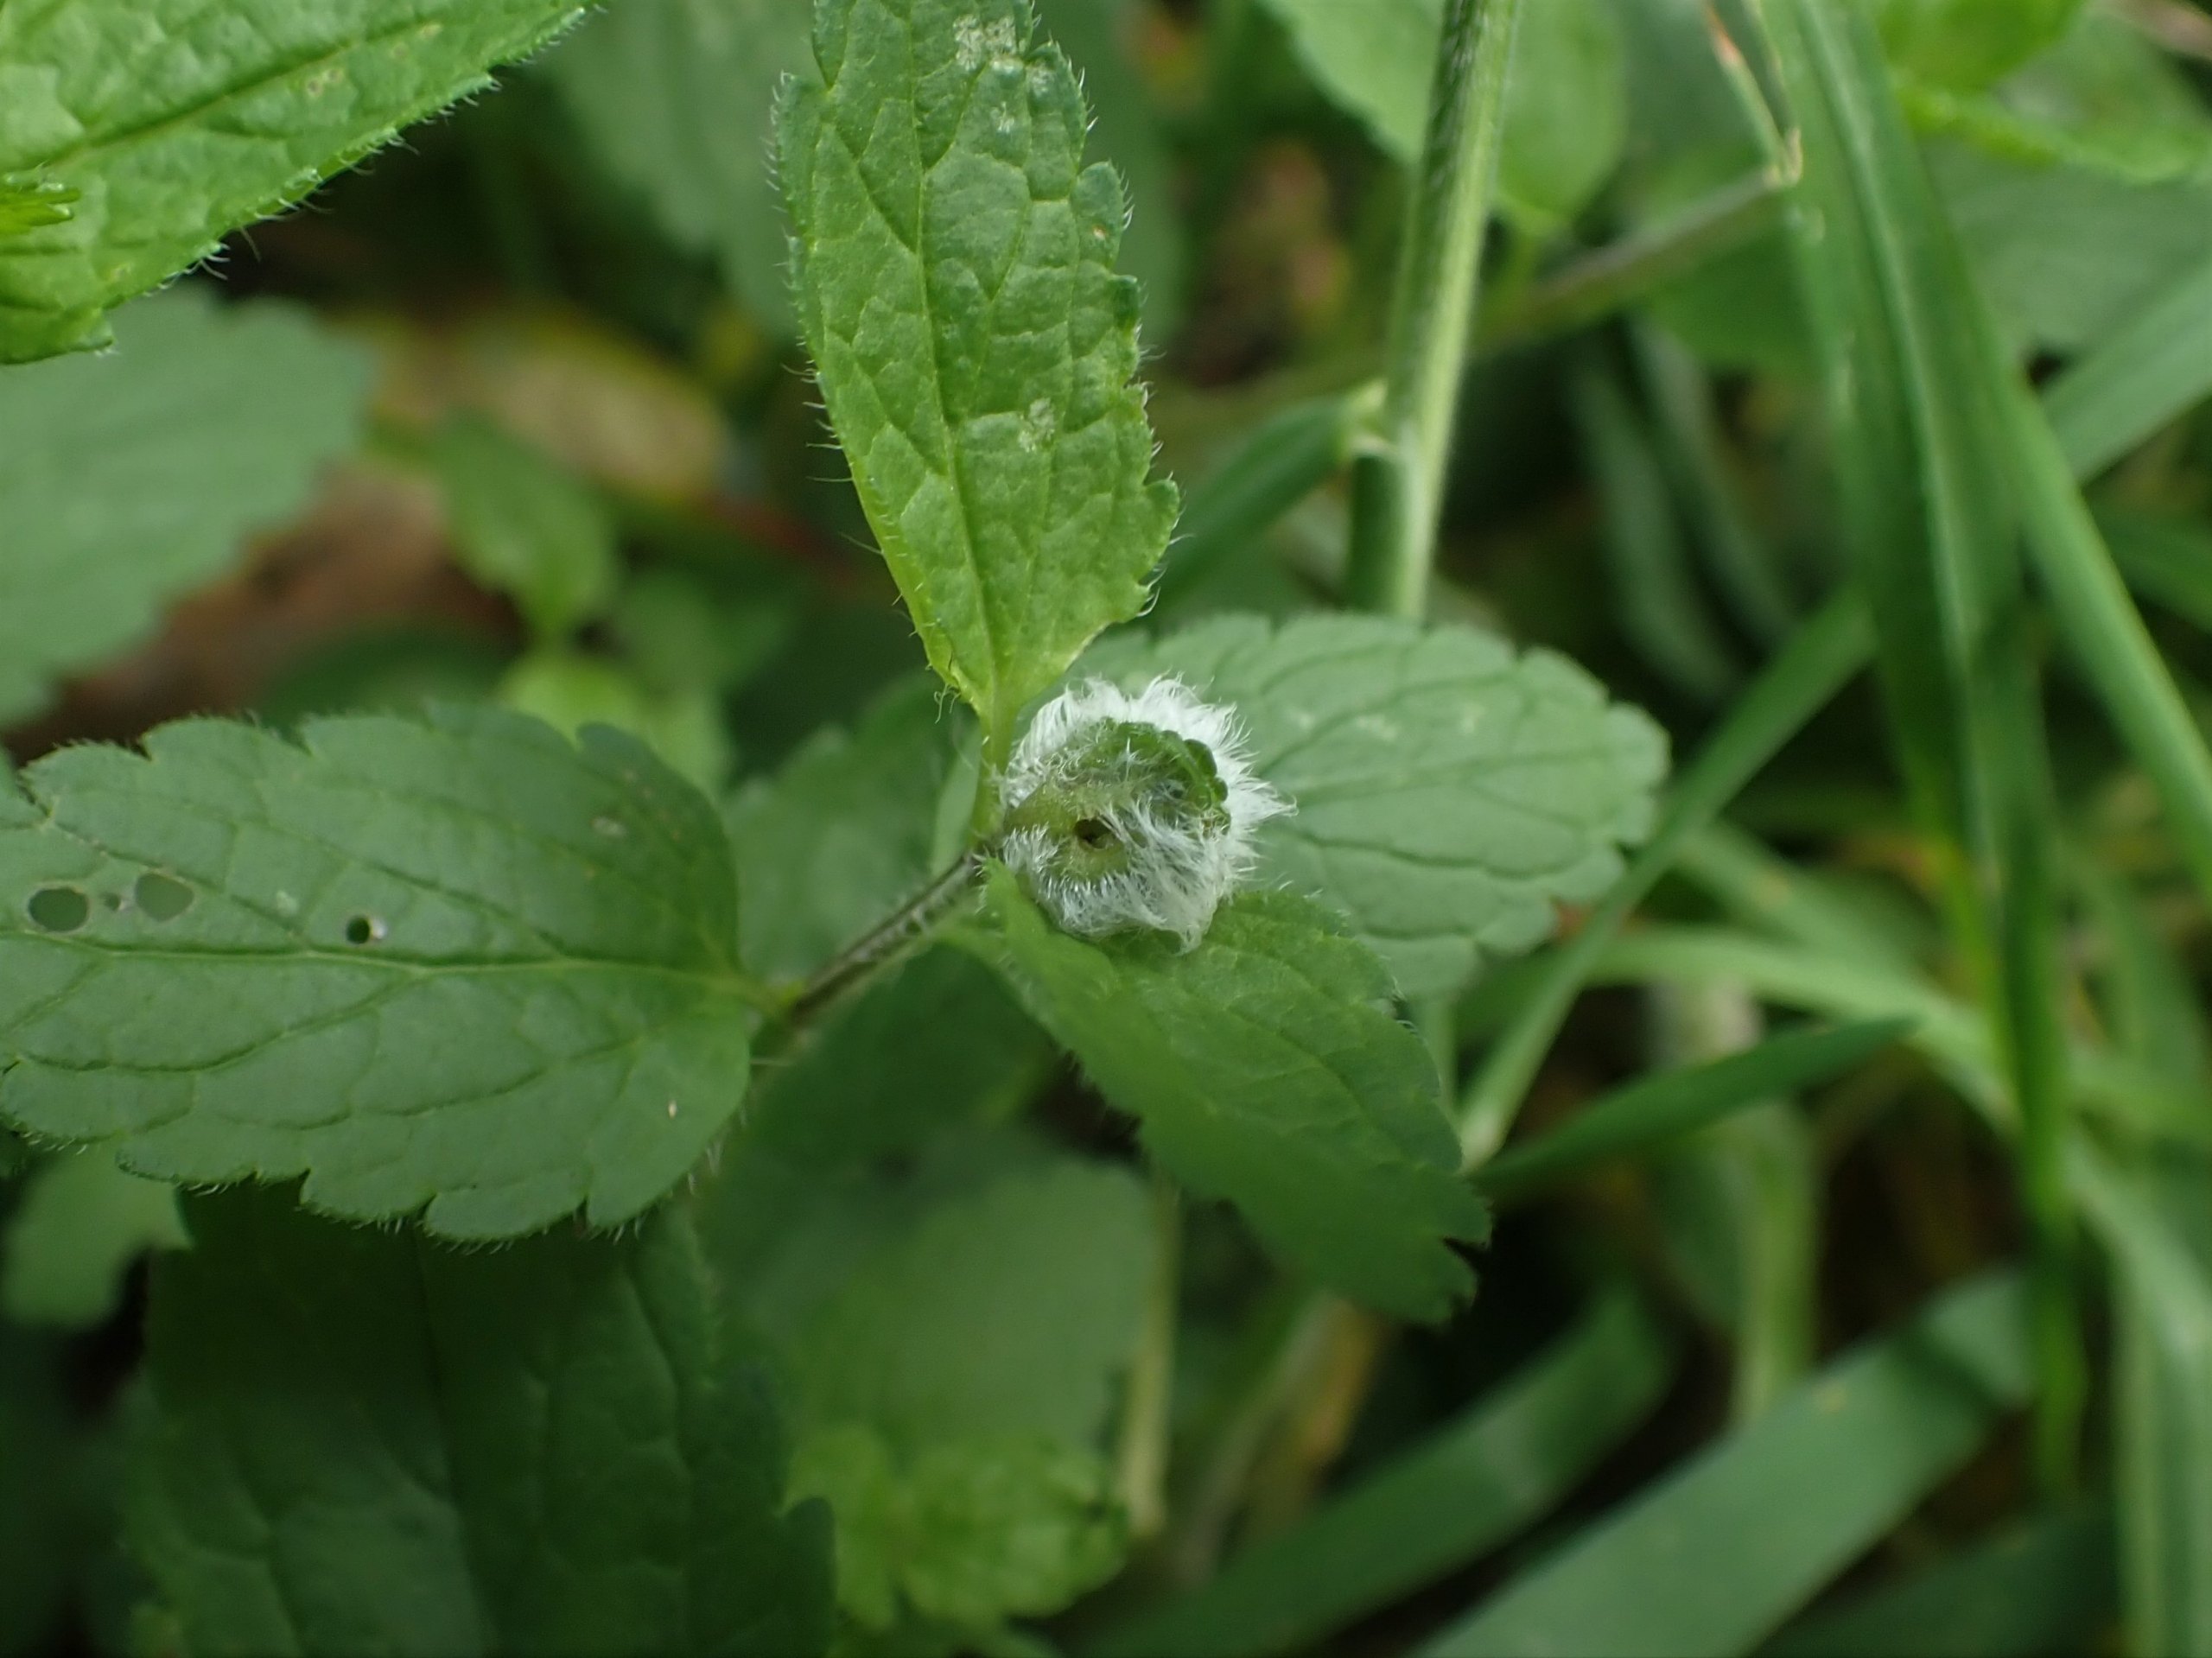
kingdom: Animalia
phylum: Arthropoda
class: Insecta
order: Diptera
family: Cecidomyiidae
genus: Jaapiella
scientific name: Jaapiella veronicae
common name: Ærenprisgalmyg
